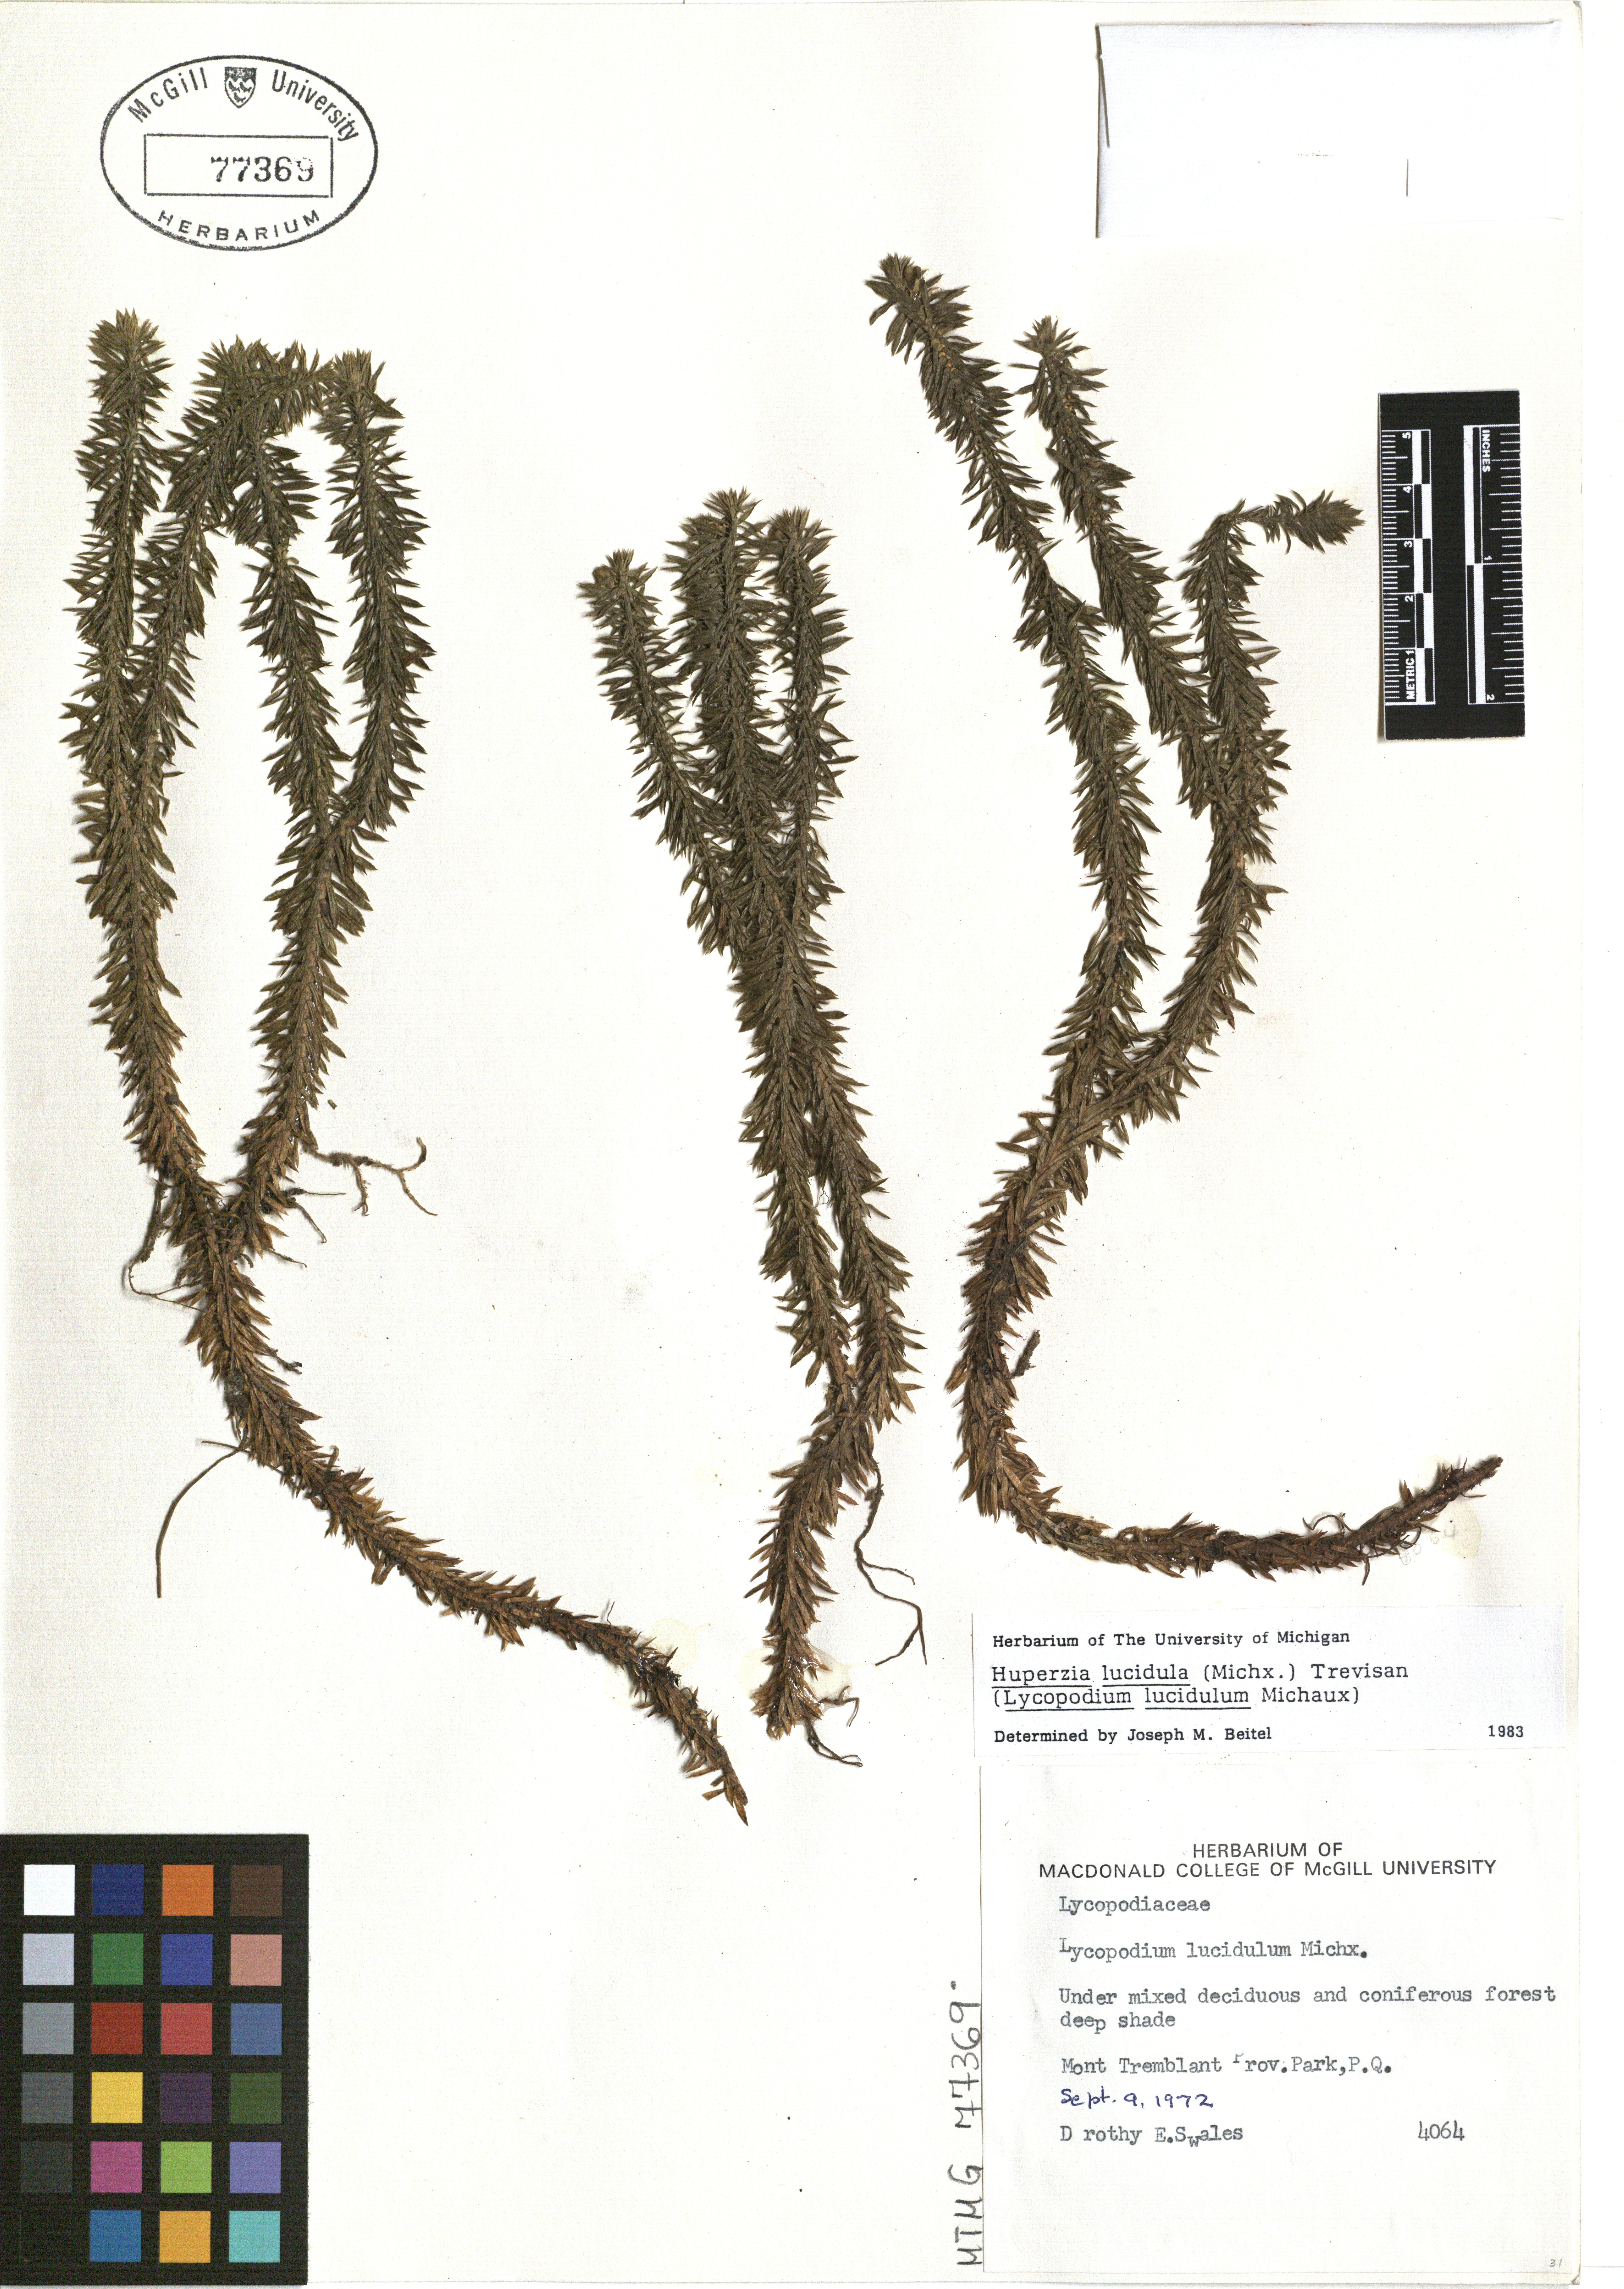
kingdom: Plantae
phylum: Tracheophyta
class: Lycopodiopsida
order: Lycopodiales
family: Lycopodiaceae
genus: Huperzia
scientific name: Huperzia lucidula
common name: Shining clubmoss
